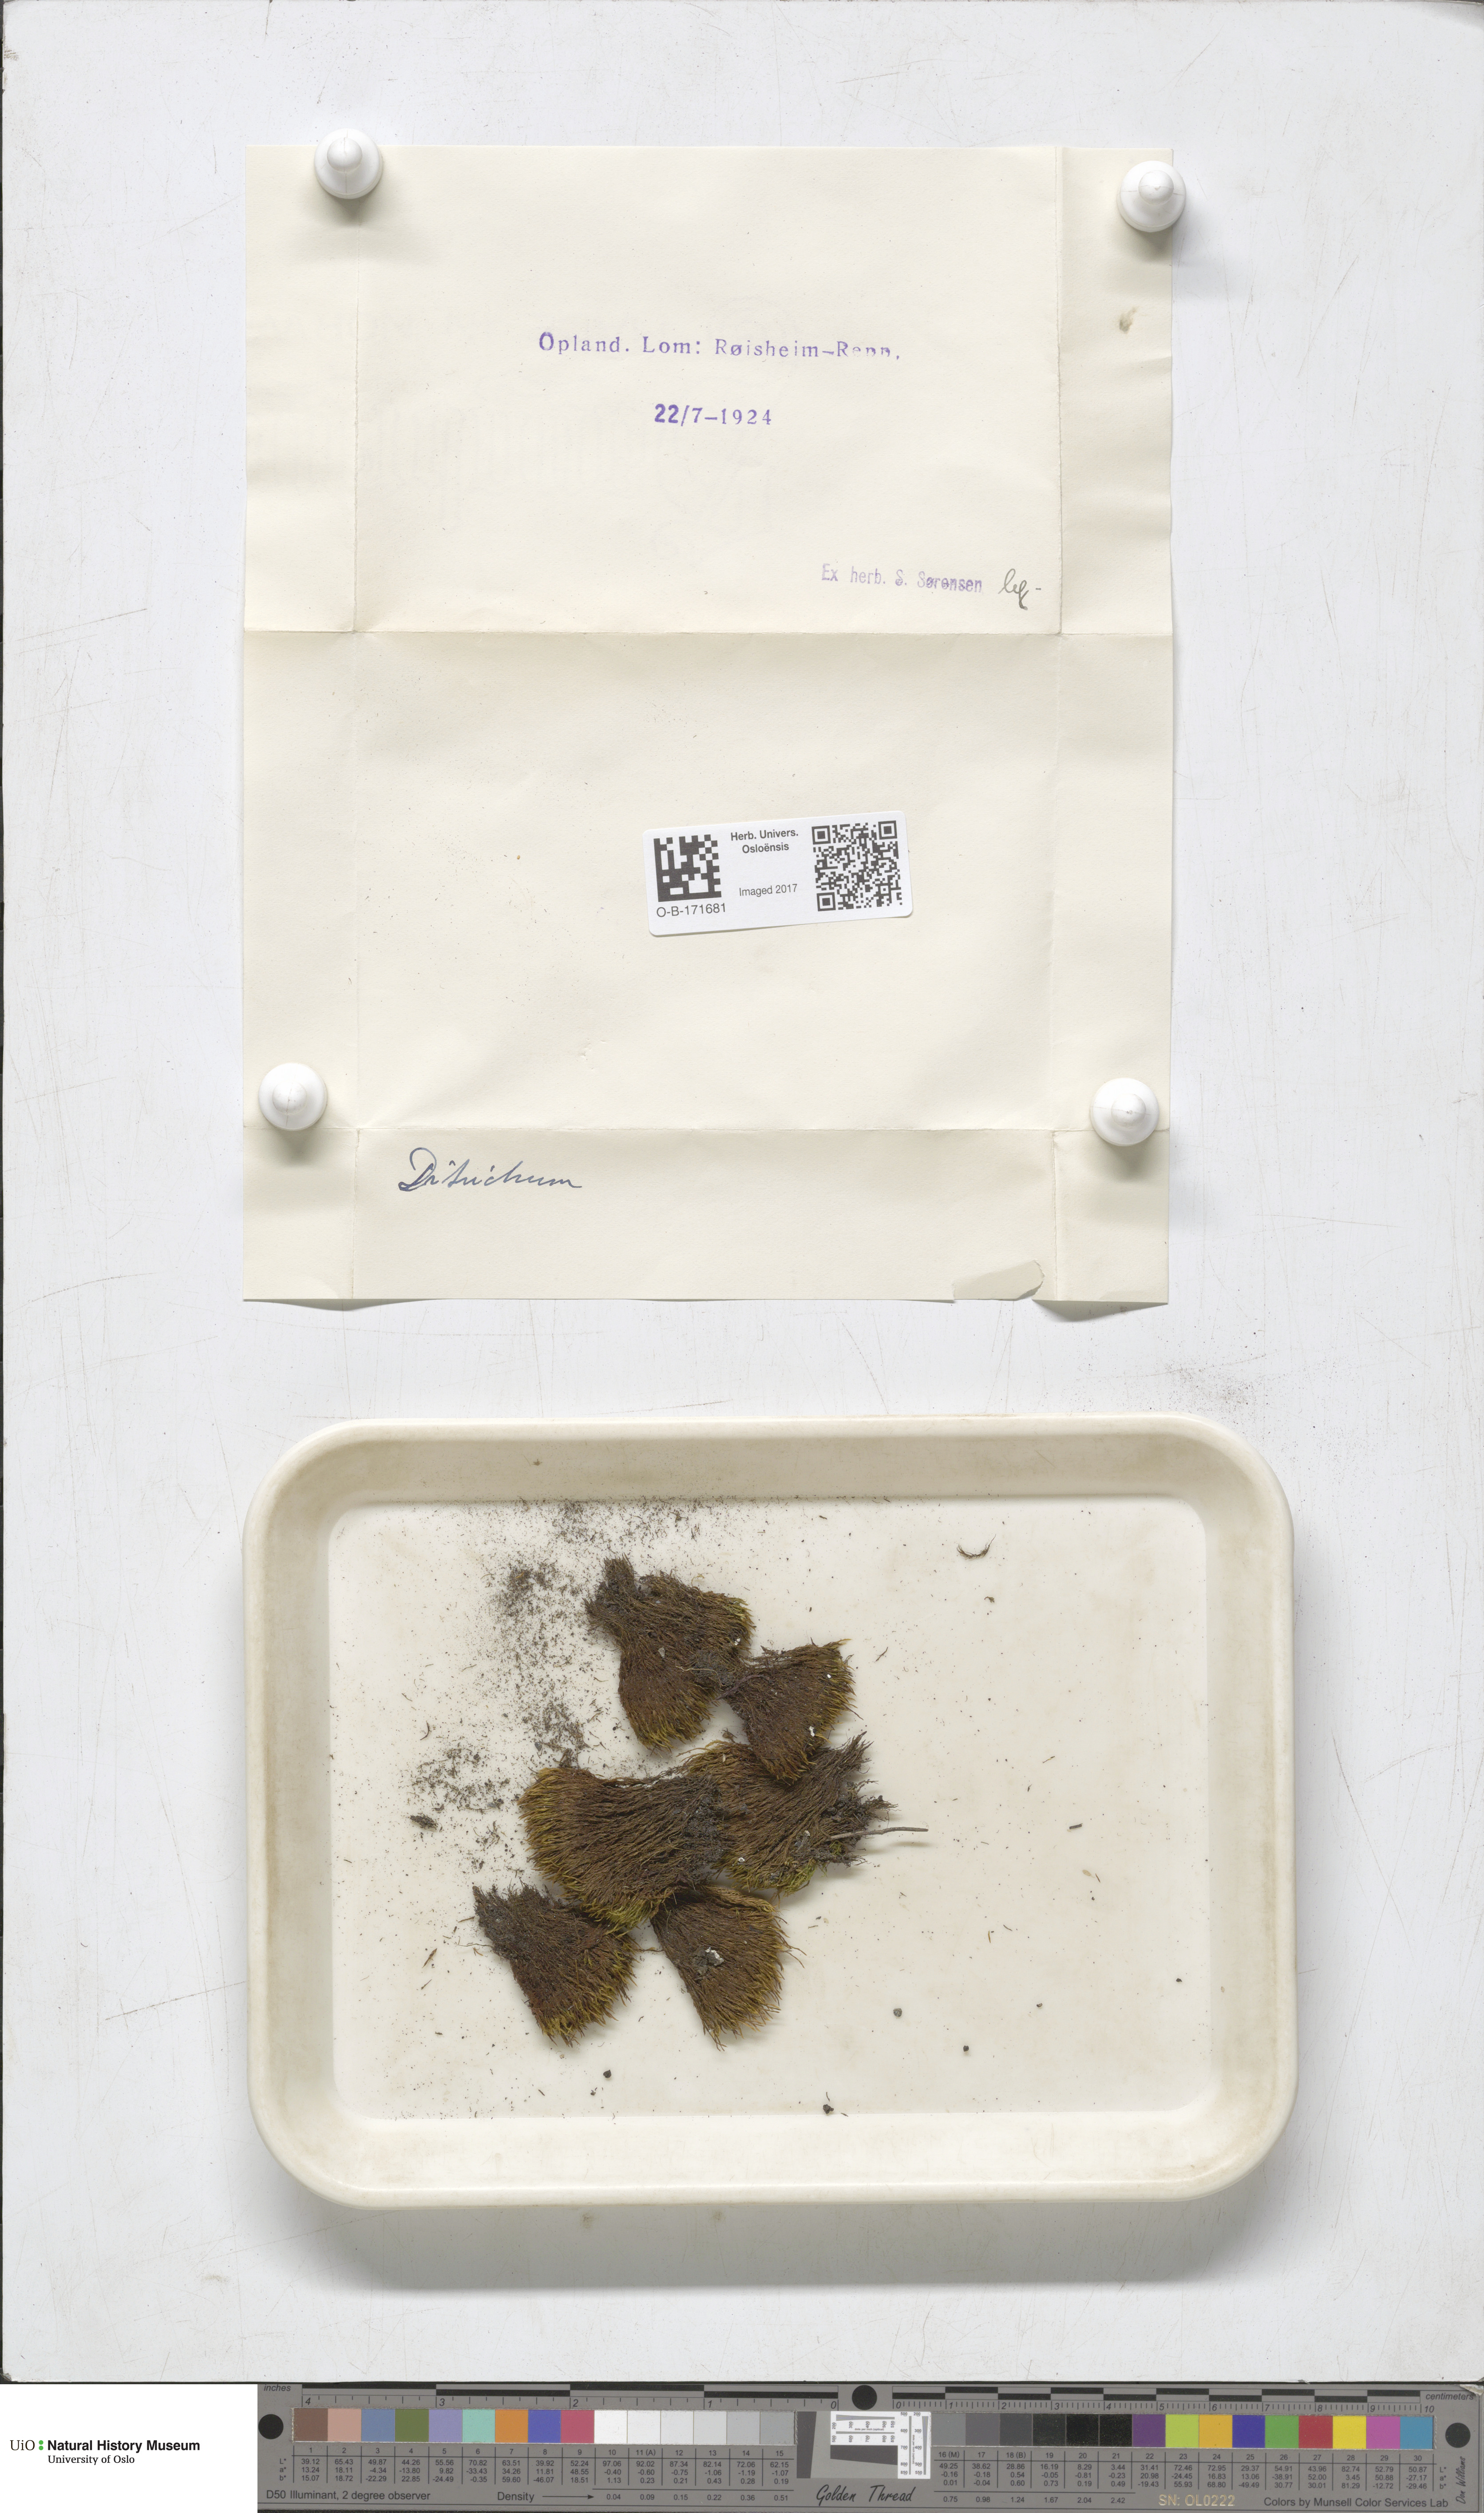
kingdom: Plantae
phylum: Bryophyta
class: Bryopsida
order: Dicranales
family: Ditrichaceae
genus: Ditrichum
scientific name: Ditrichum
